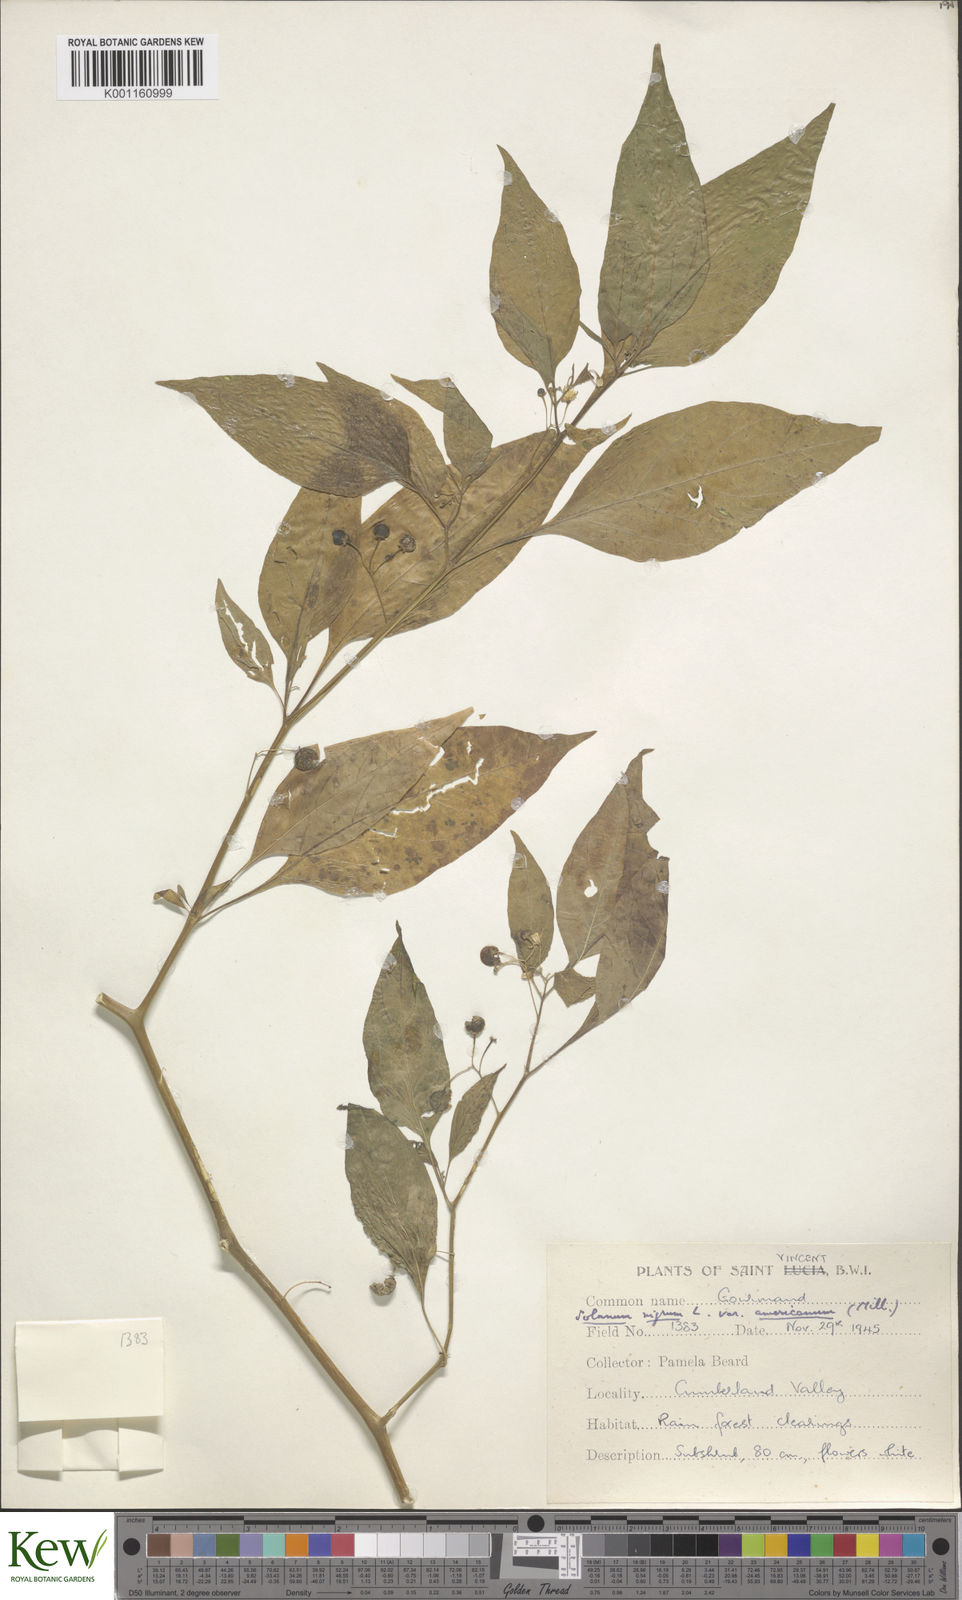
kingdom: Plantae
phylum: Tracheophyta
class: Magnoliopsida
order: Solanales
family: Solanaceae
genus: Solanum
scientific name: Solanum americanum
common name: American black nightshade
